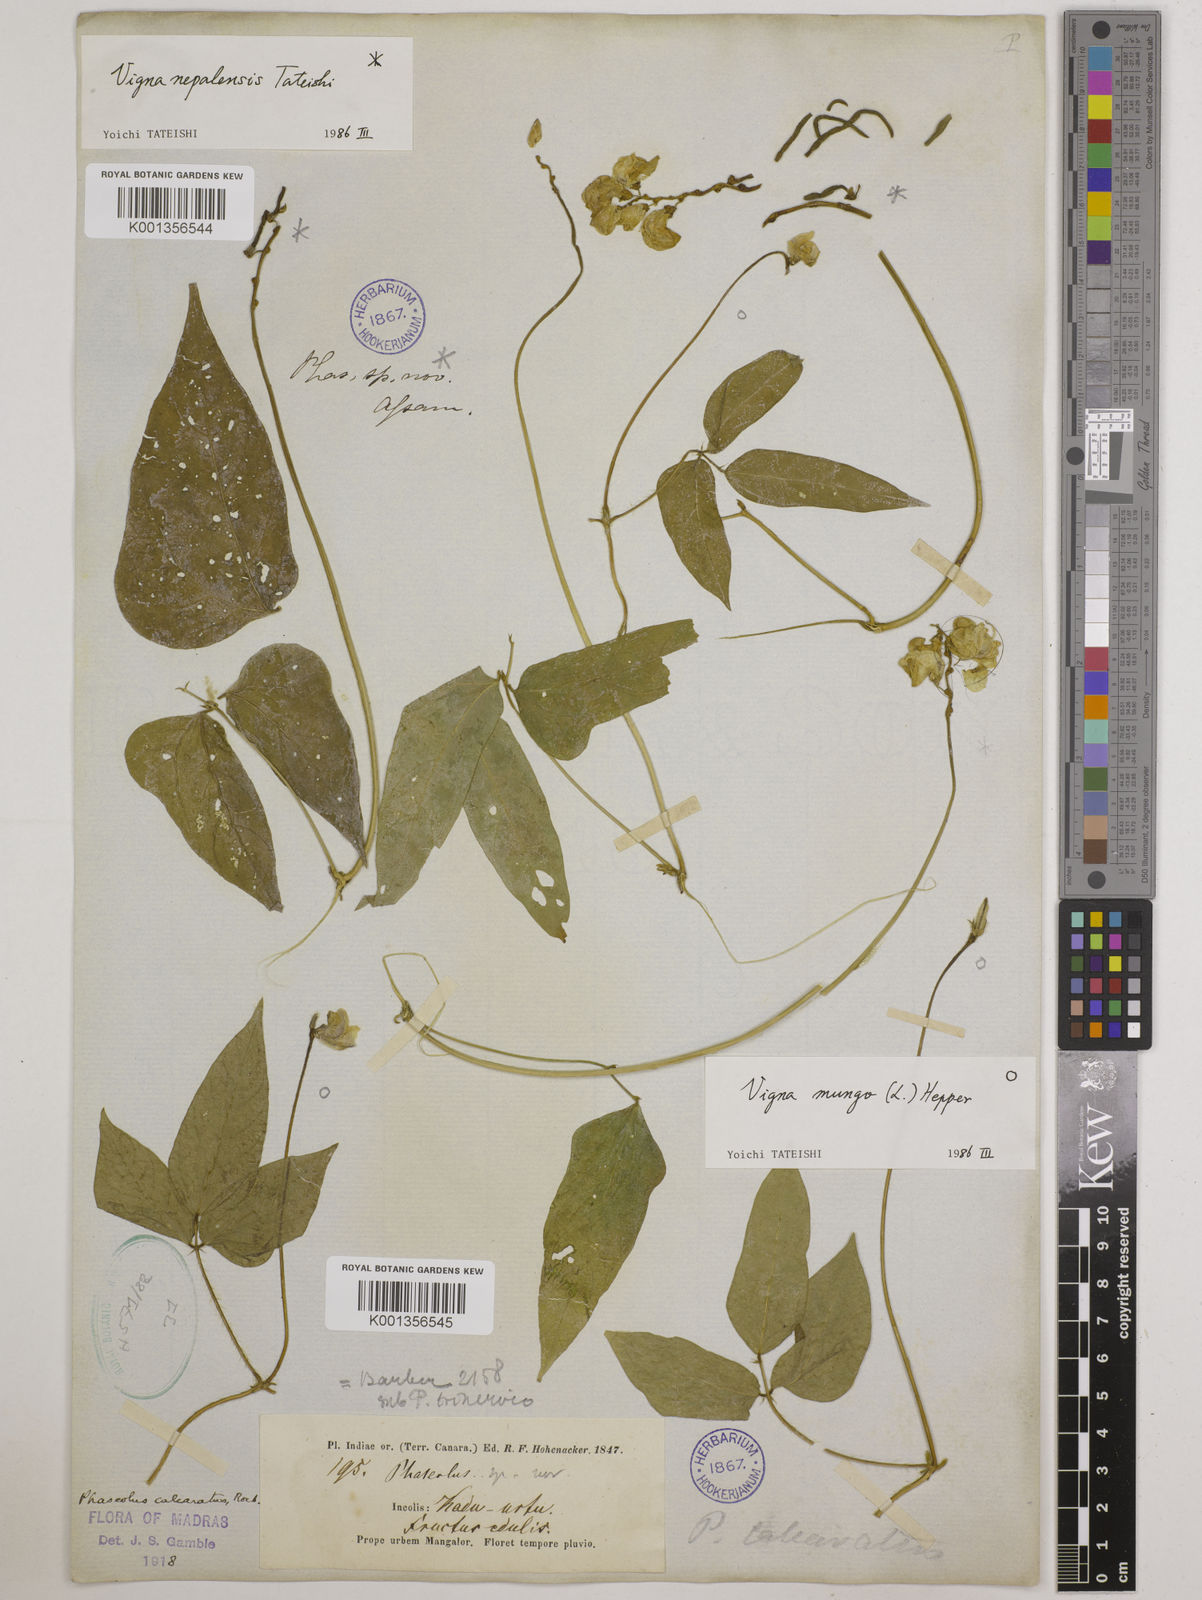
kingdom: Plantae
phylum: Tracheophyta
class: Magnoliopsida
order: Fabales
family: Fabaceae
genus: Vigna
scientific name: Vigna
